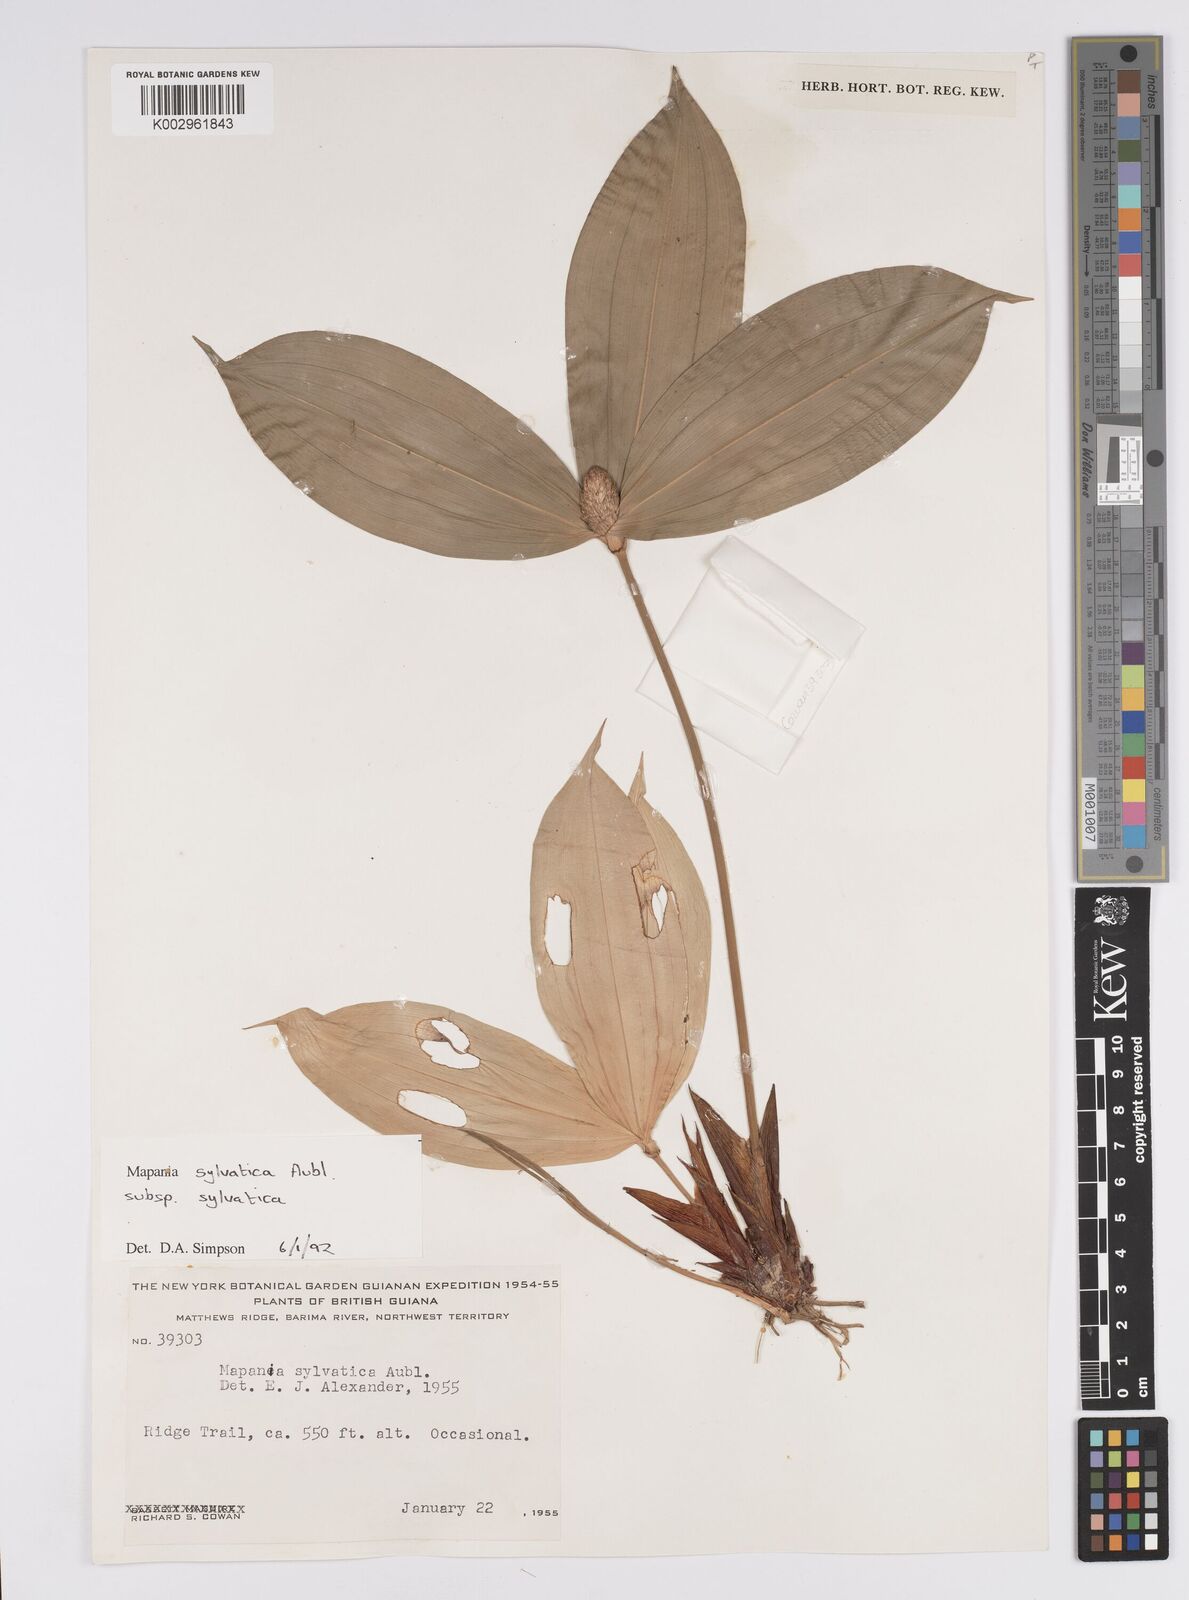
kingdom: Plantae
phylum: Tracheophyta
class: Liliopsida
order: Poales
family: Cyperaceae
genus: Mapania
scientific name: Mapania sylvatica
